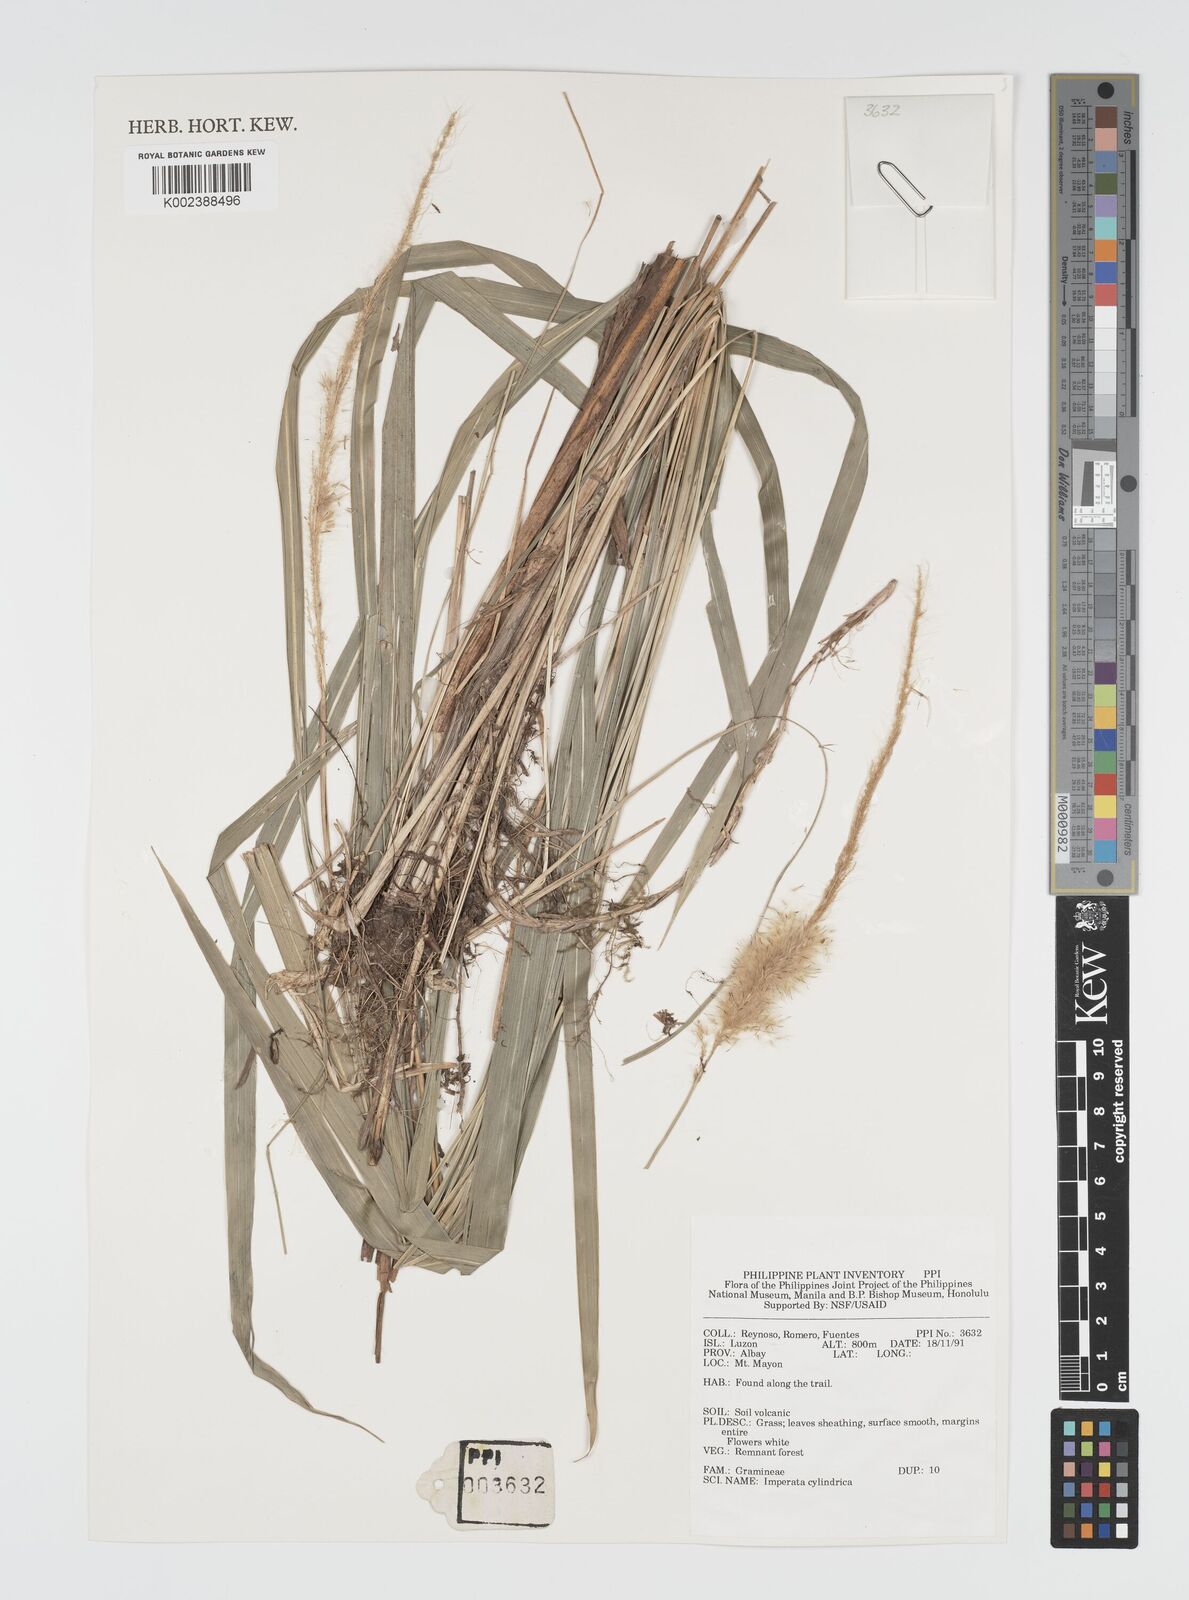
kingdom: Plantae
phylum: Tracheophyta
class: Liliopsida
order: Poales
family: Poaceae
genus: Imperata
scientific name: Imperata cylindrica
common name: Cogongrass
